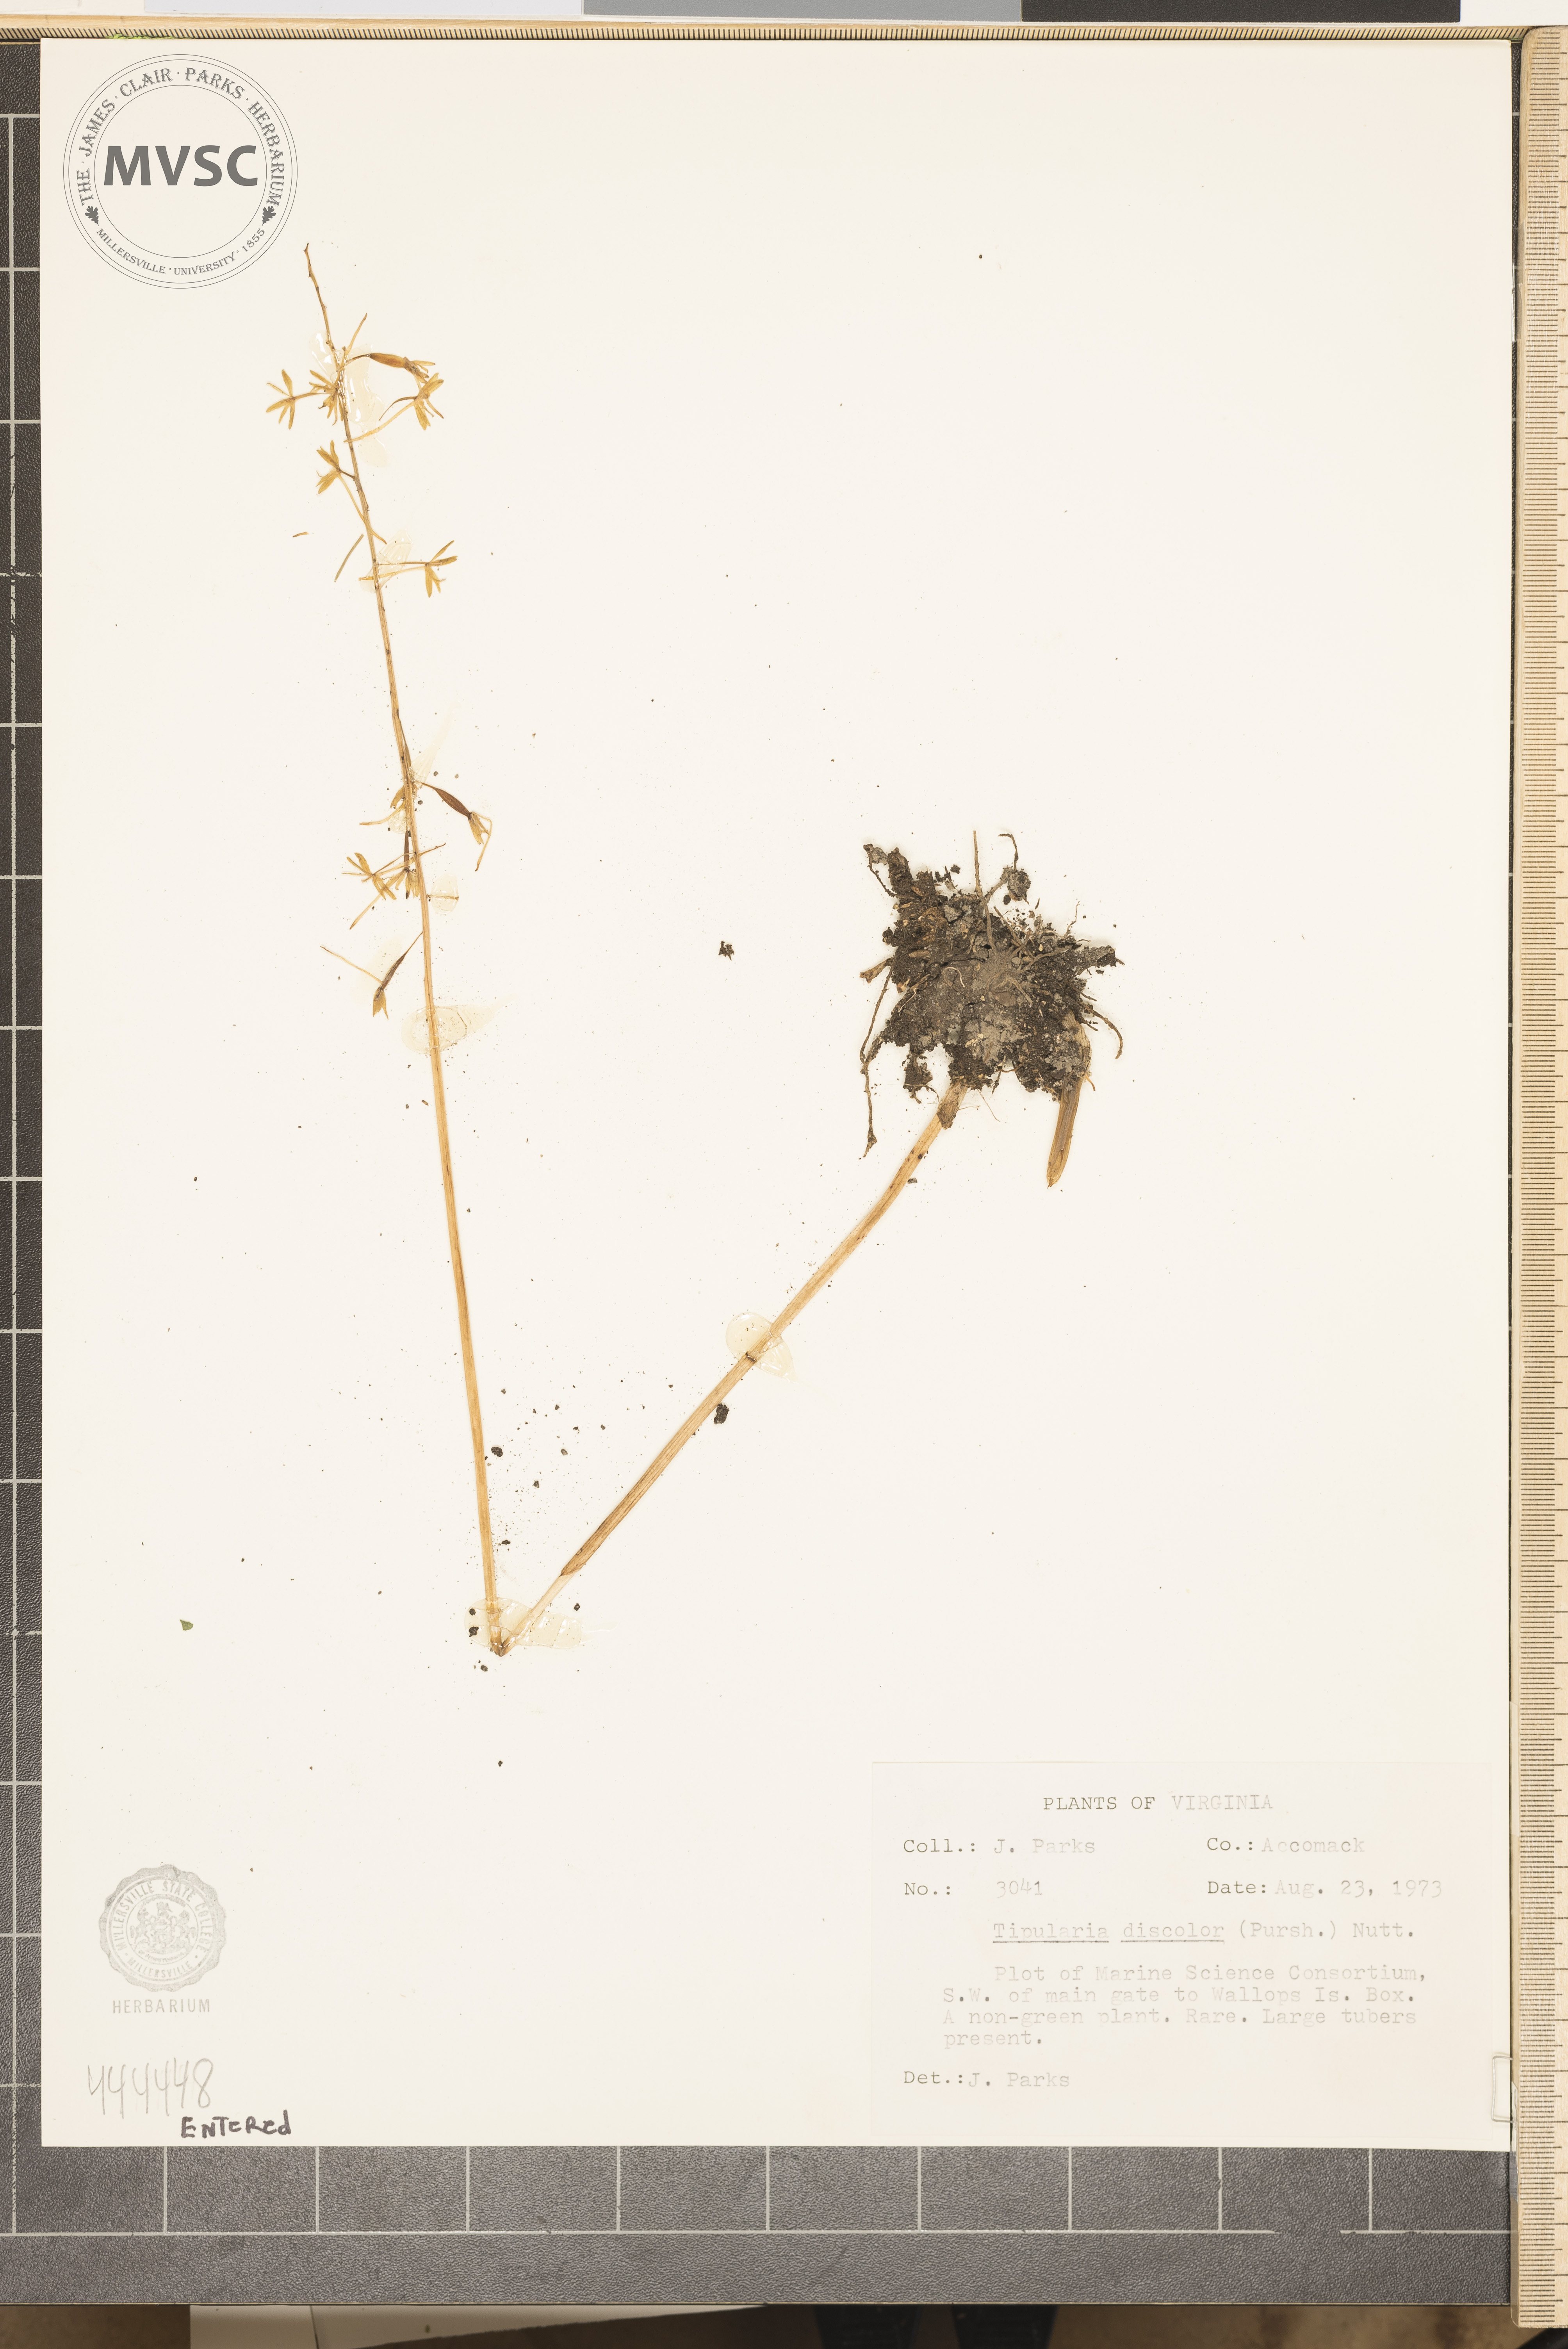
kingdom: Plantae
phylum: Tracheophyta
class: Liliopsida
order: Asparagales
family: Orchidaceae
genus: Tipularia
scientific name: Tipularia discolor
